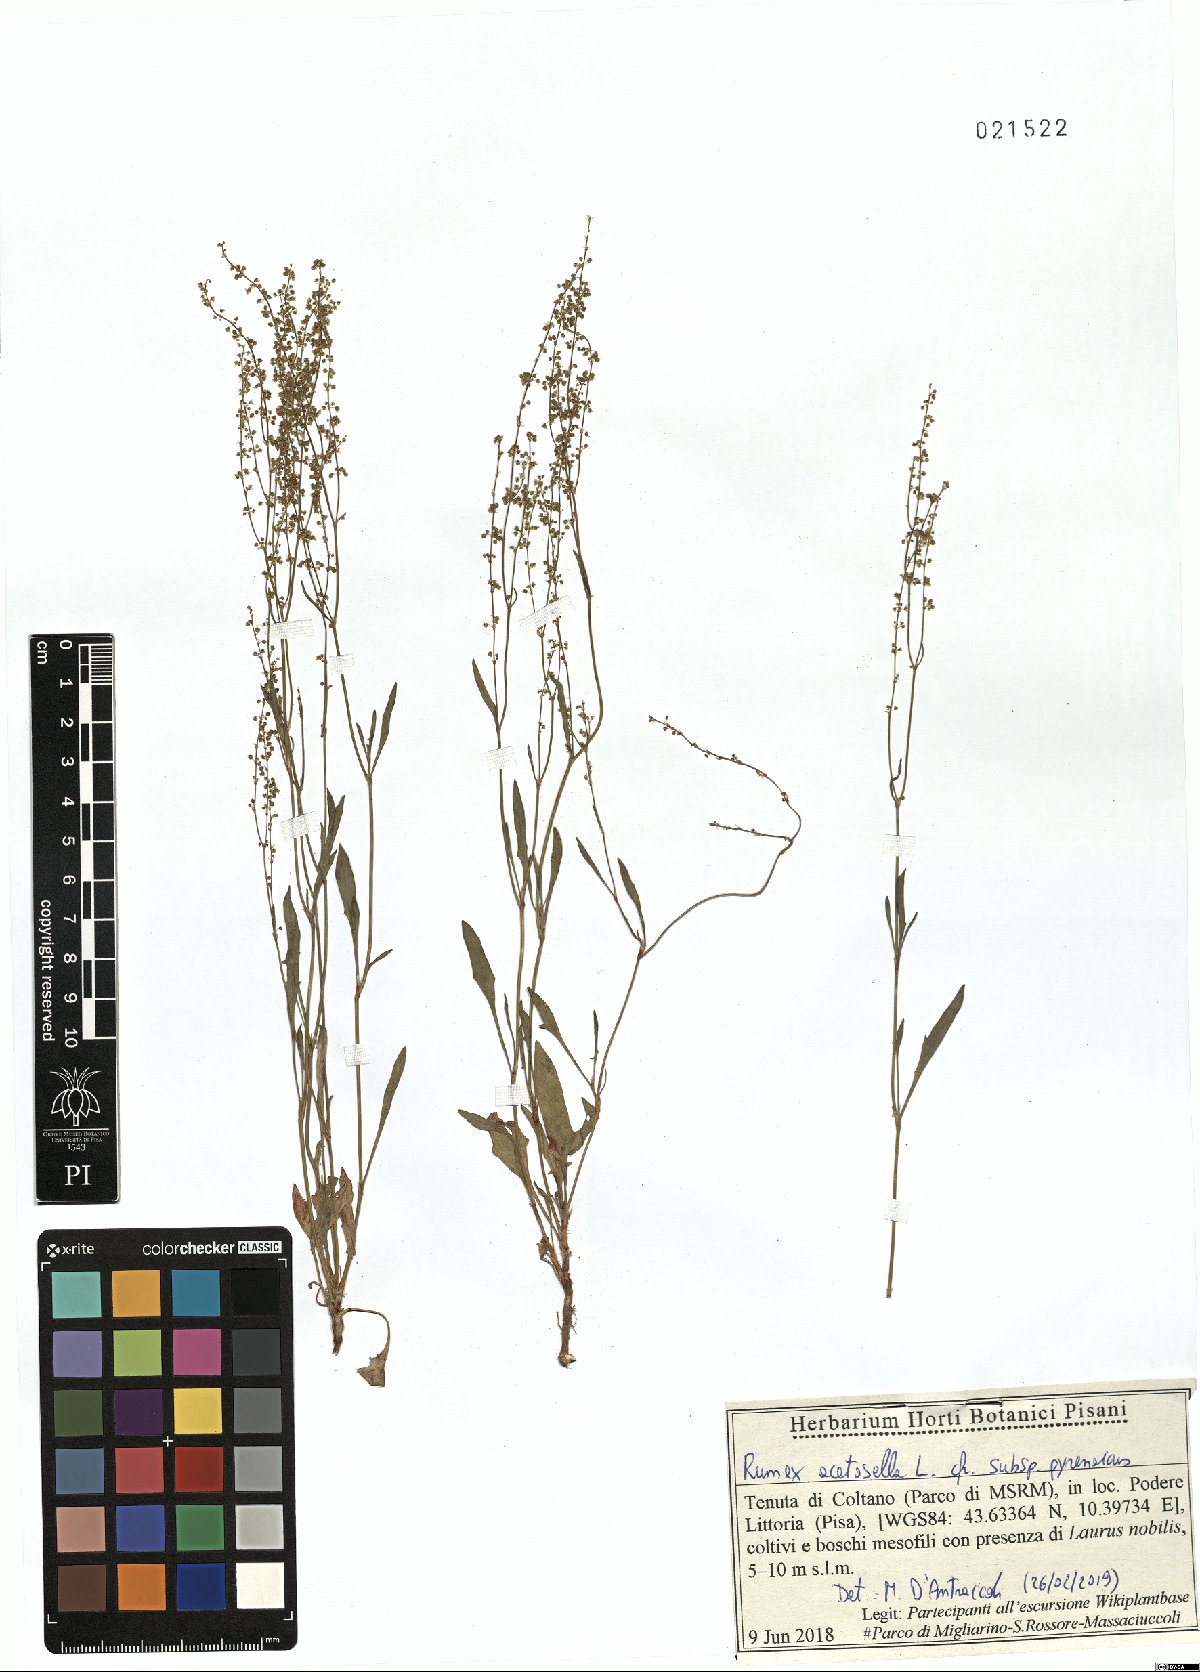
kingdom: Plantae
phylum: Tracheophyta
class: Magnoliopsida
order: Caryophyllales
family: Polygonaceae
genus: Rumex
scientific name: Rumex acetosella
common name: Common sheep sorrel
